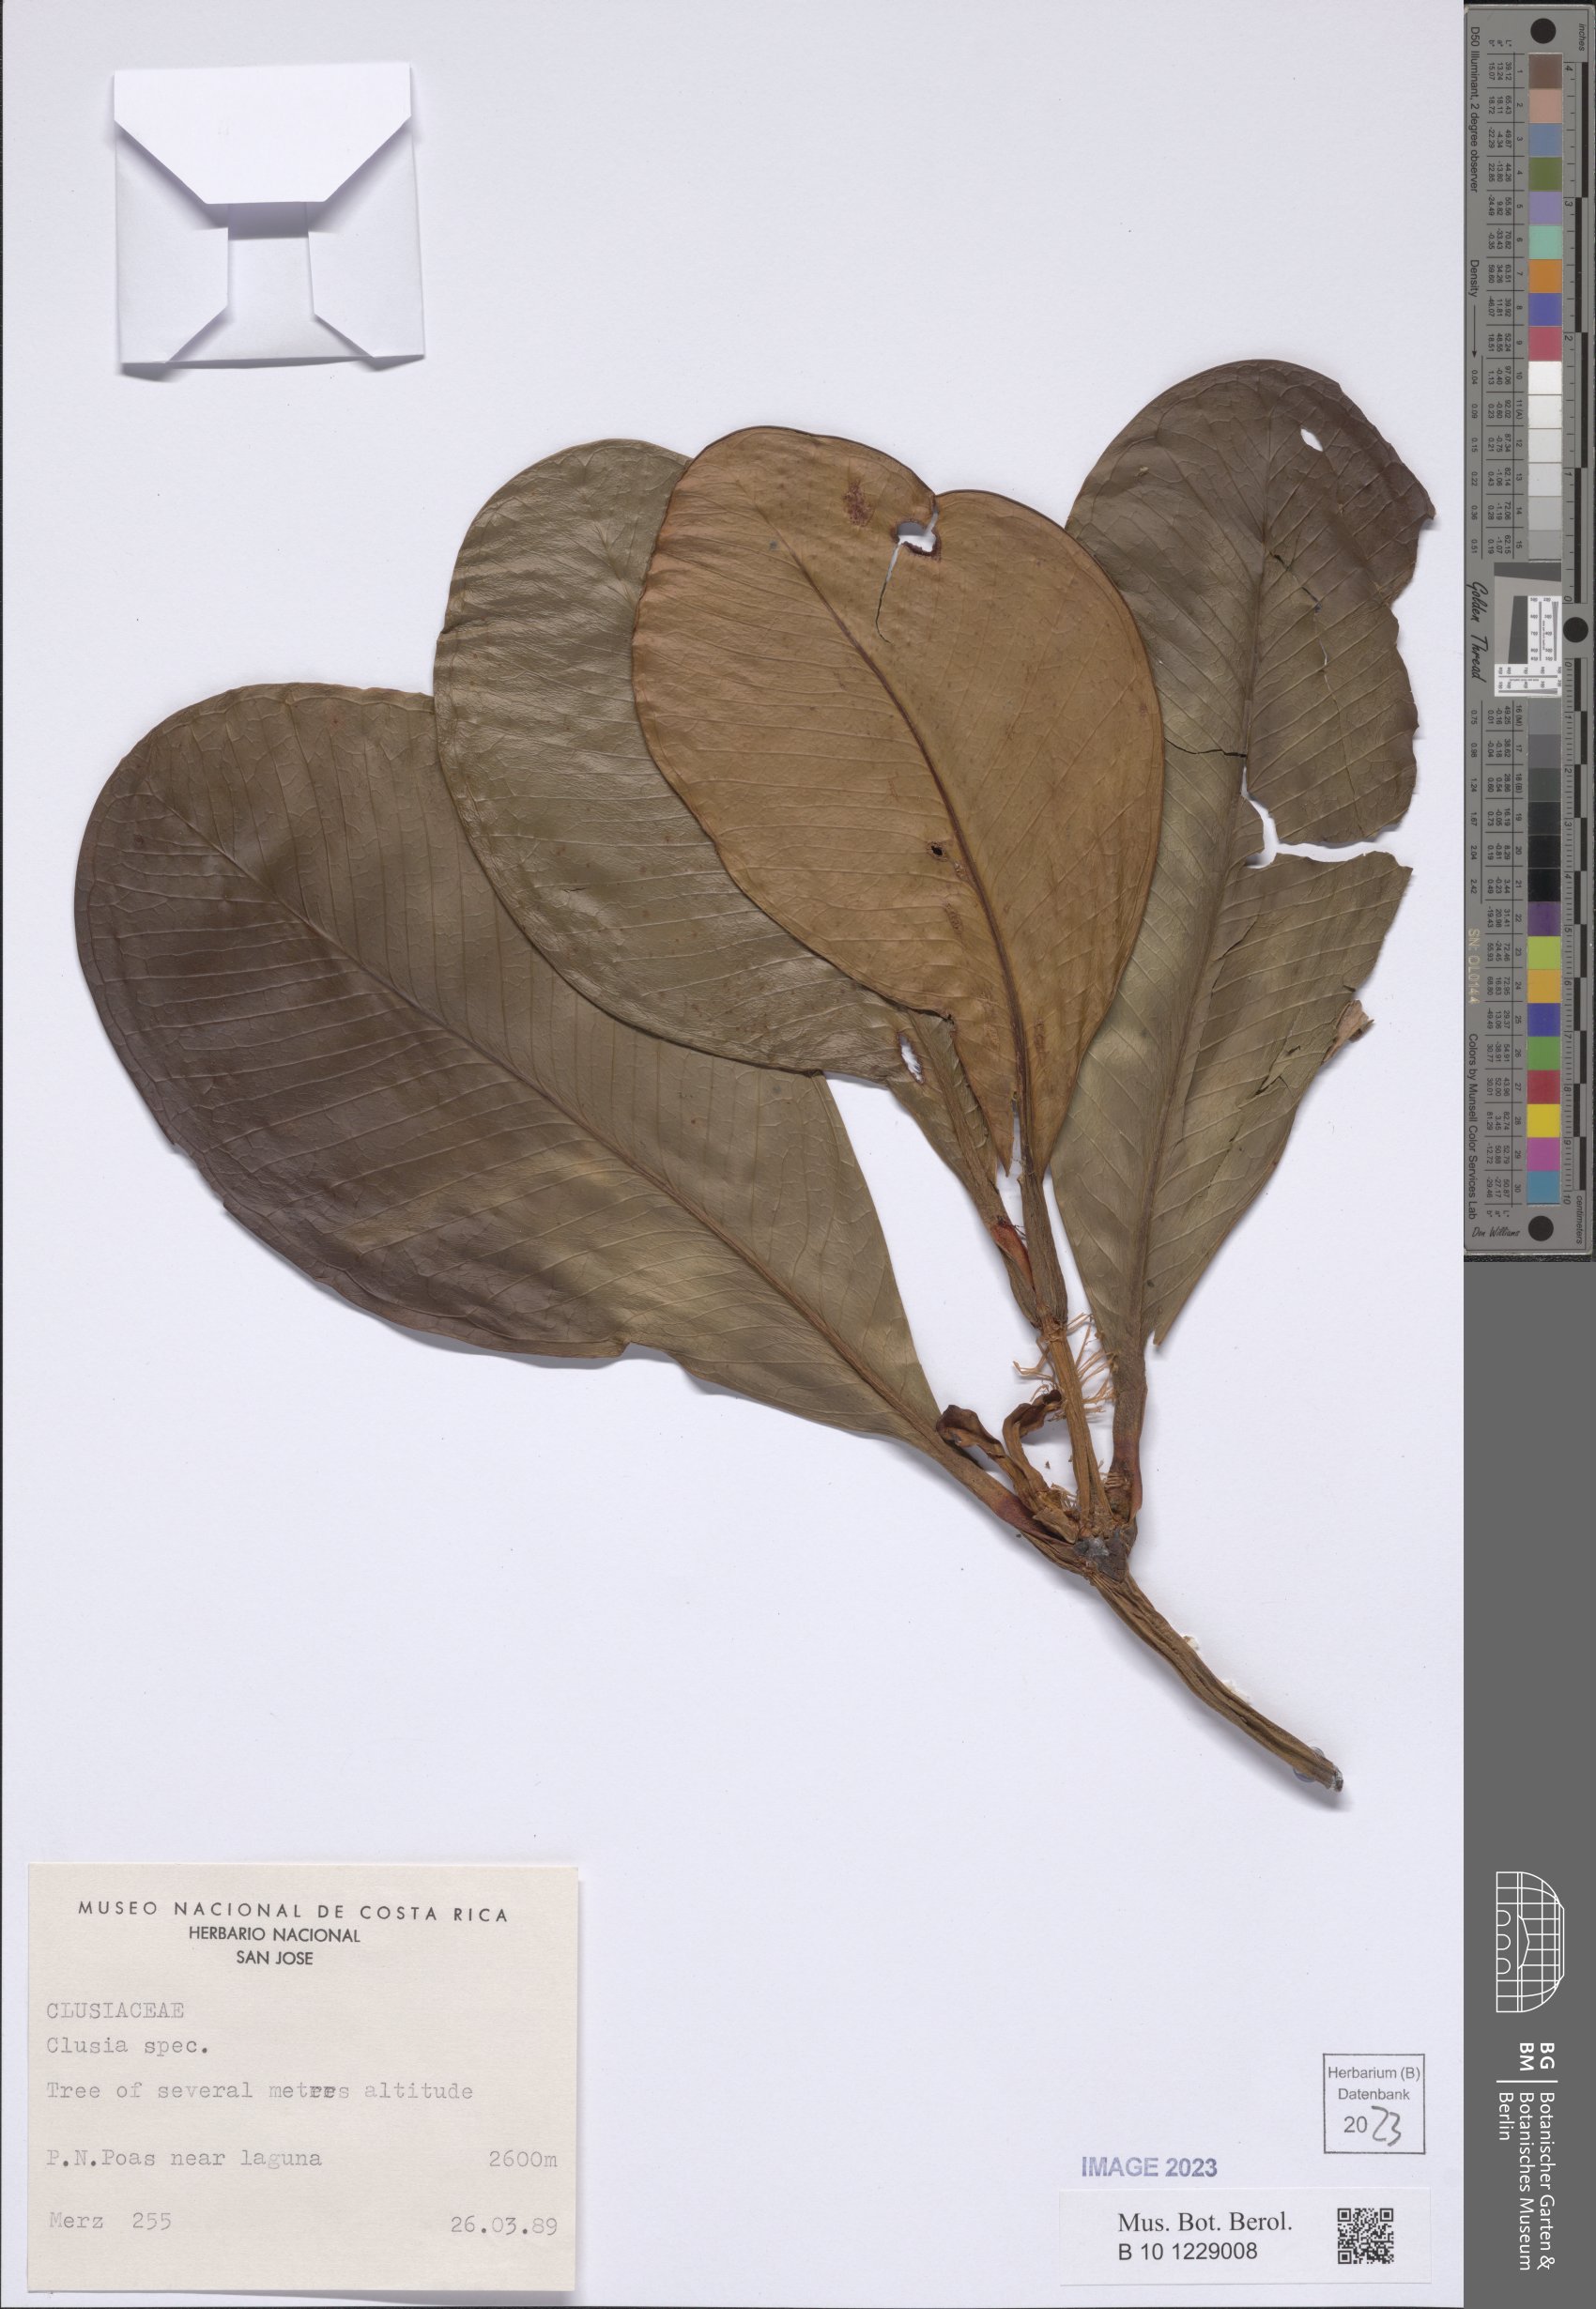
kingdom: Plantae
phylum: Tracheophyta
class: Magnoliopsida
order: Malpighiales
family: Clusiaceae
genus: Clusia
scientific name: Clusia
